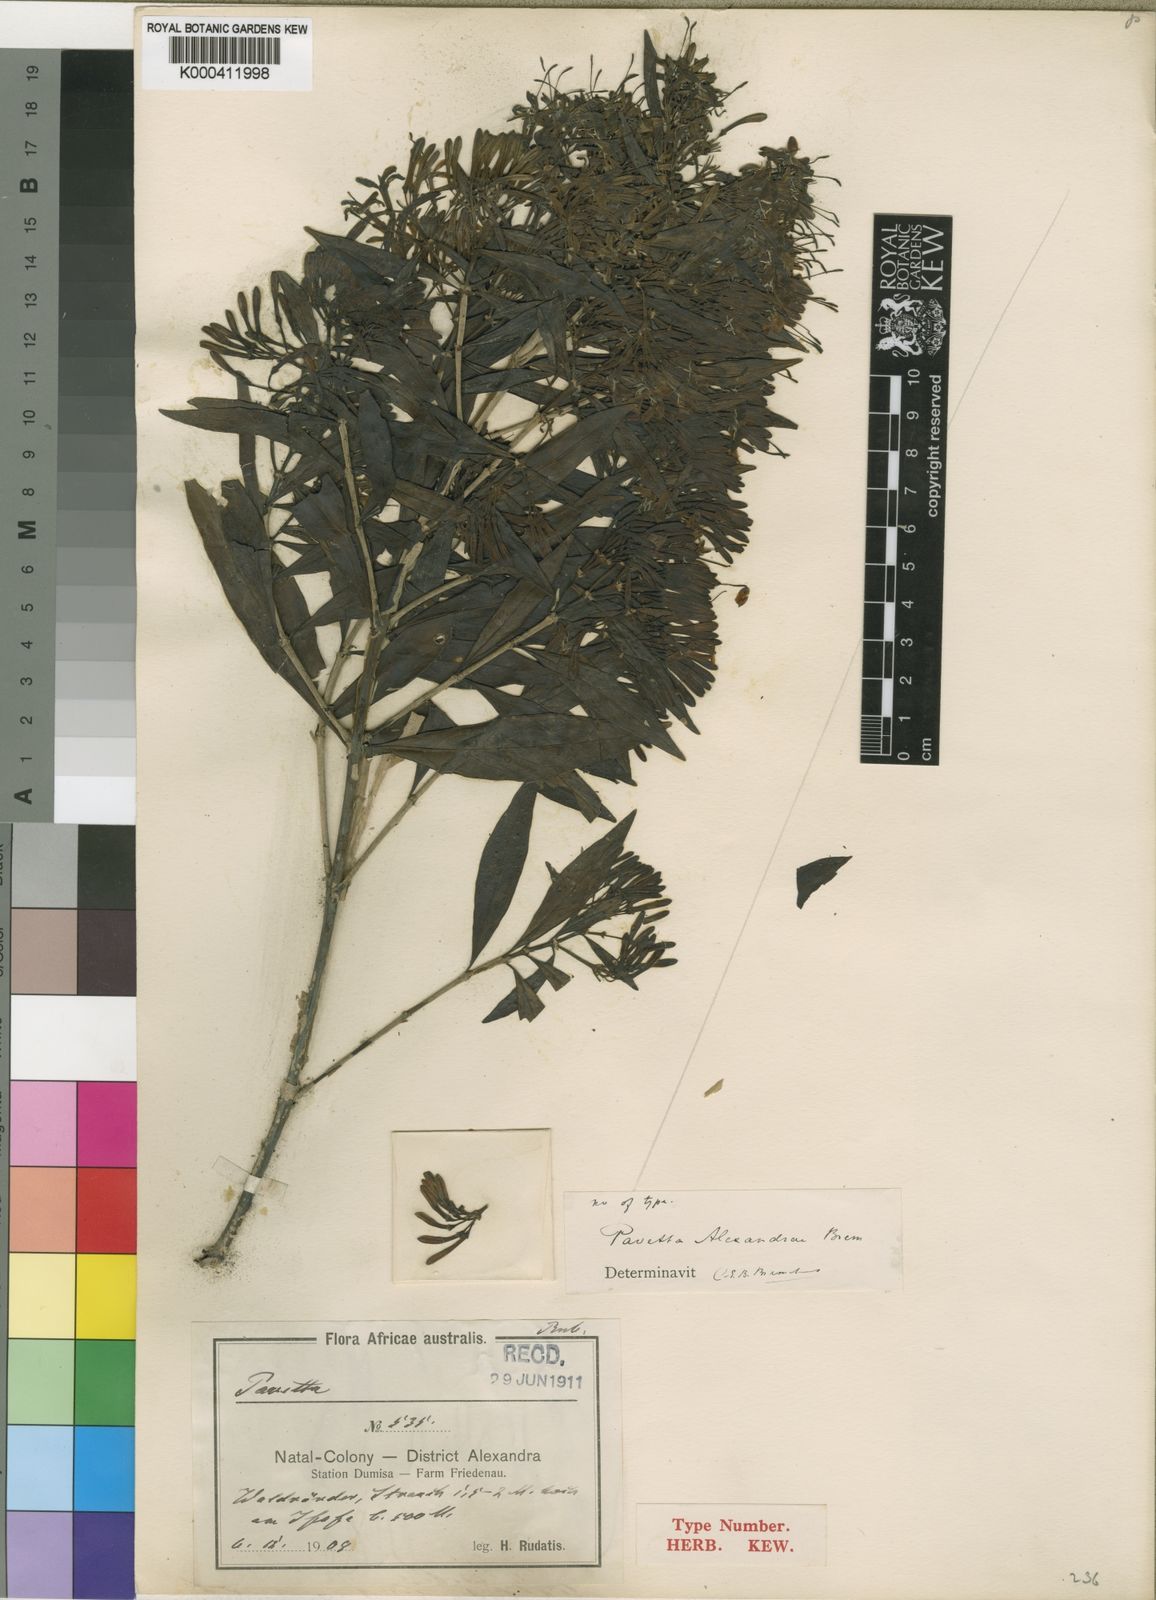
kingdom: Plantae
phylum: Tracheophyta
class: Magnoliopsida
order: Gentianales
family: Rubiaceae
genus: Pavetta
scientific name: Pavetta lanceolata
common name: Weeping brides-bush
